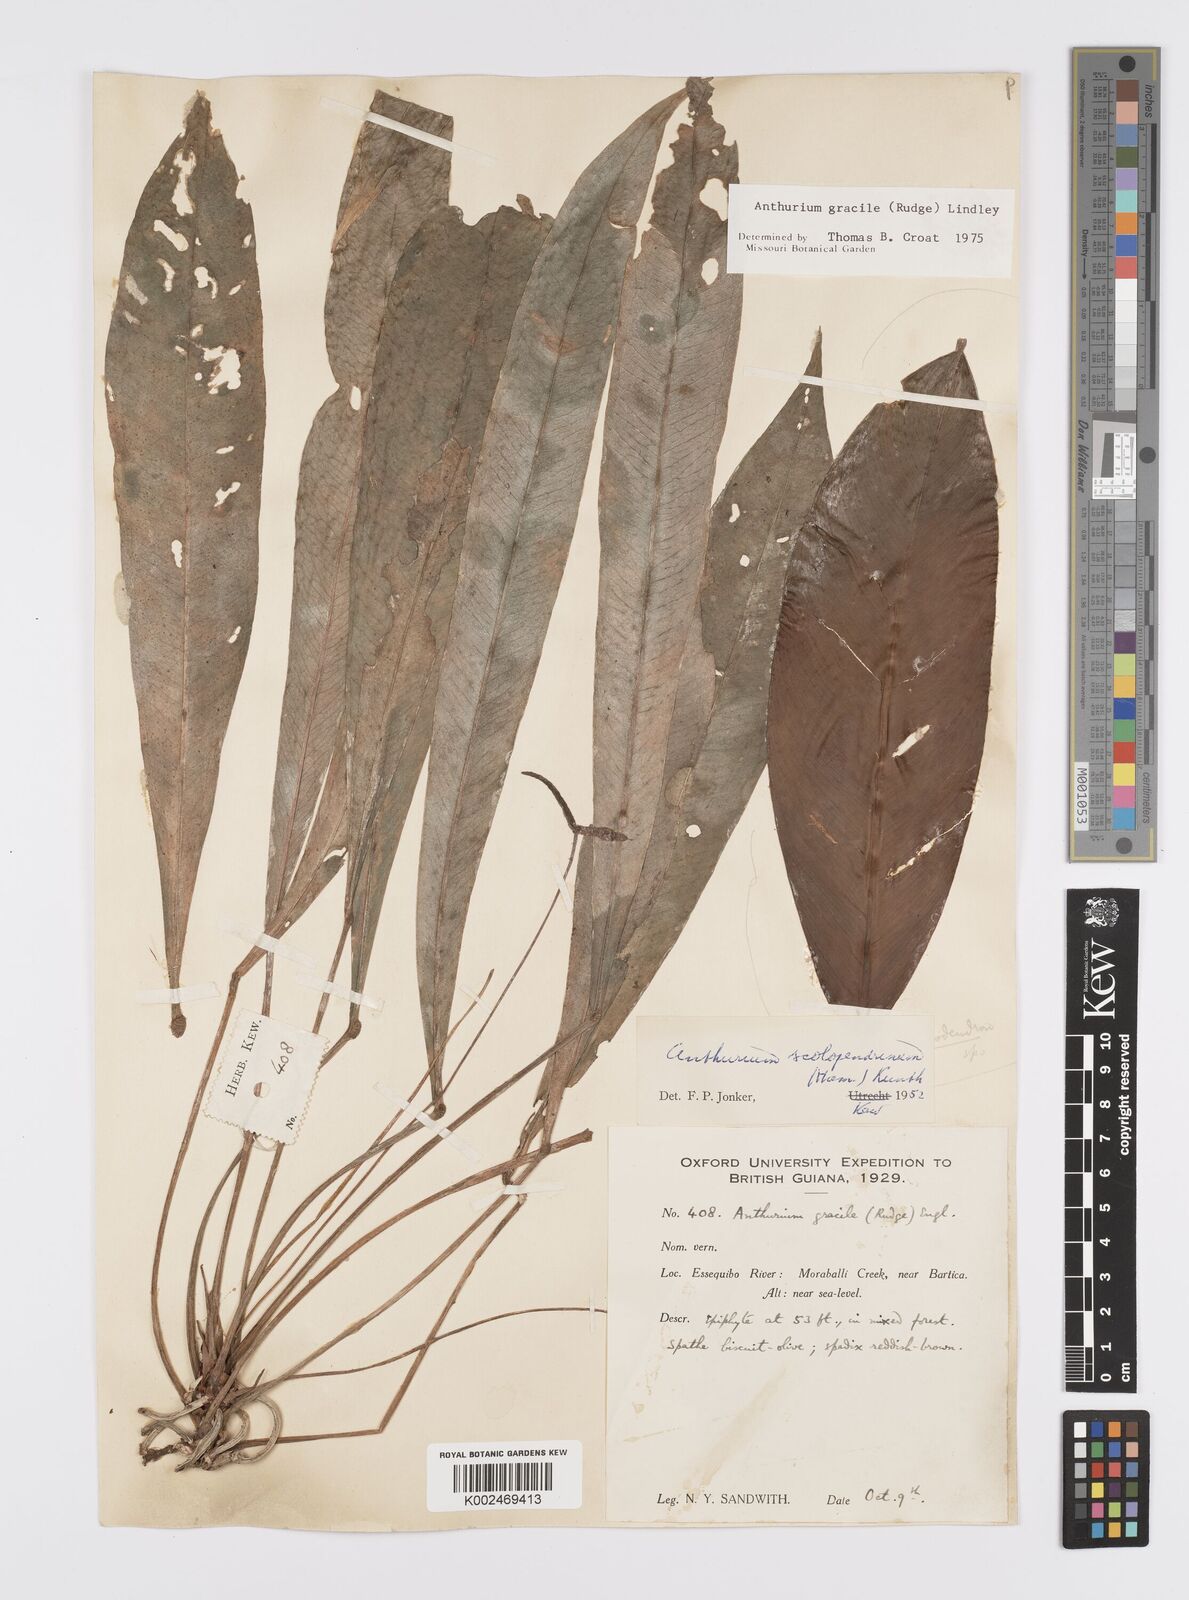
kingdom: Plantae
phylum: Tracheophyta
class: Liliopsida
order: Alismatales
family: Araceae
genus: Anthurium
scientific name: Anthurium gracile
